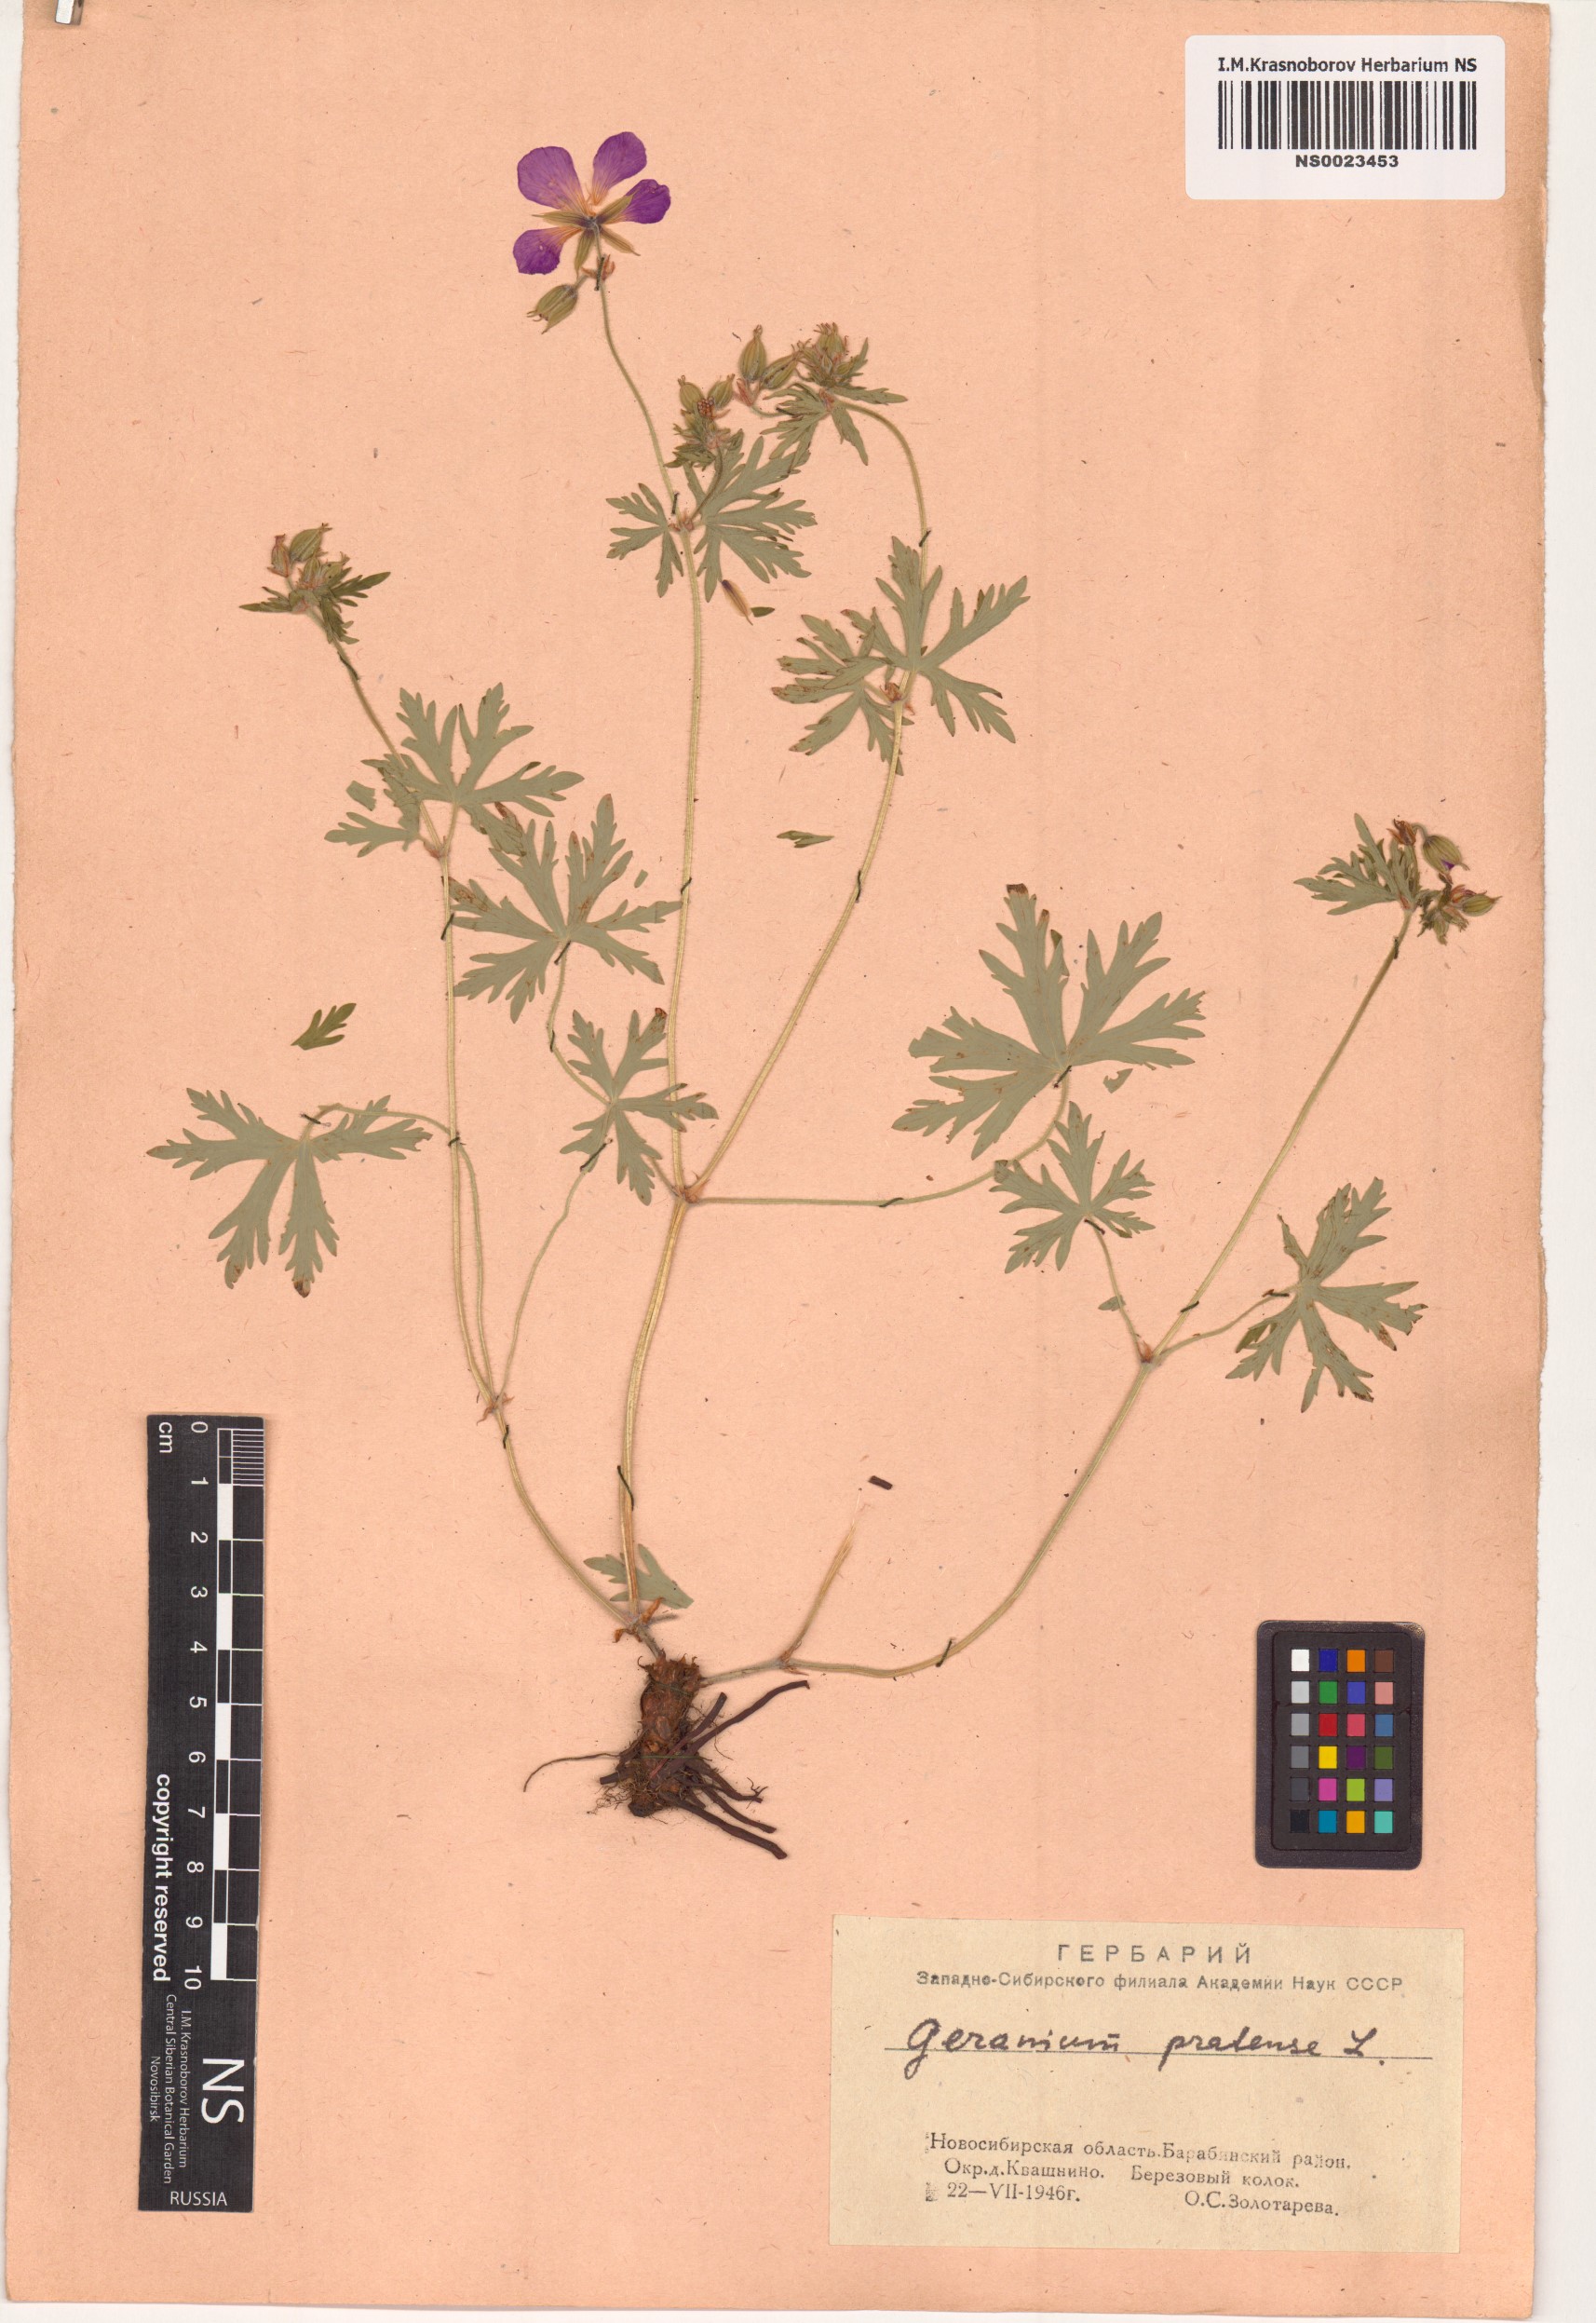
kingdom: Plantae
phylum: Tracheophyta
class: Magnoliopsida
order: Geraniales
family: Geraniaceae
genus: Geranium
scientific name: Geranium pratense
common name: Meadow crane's-bill
